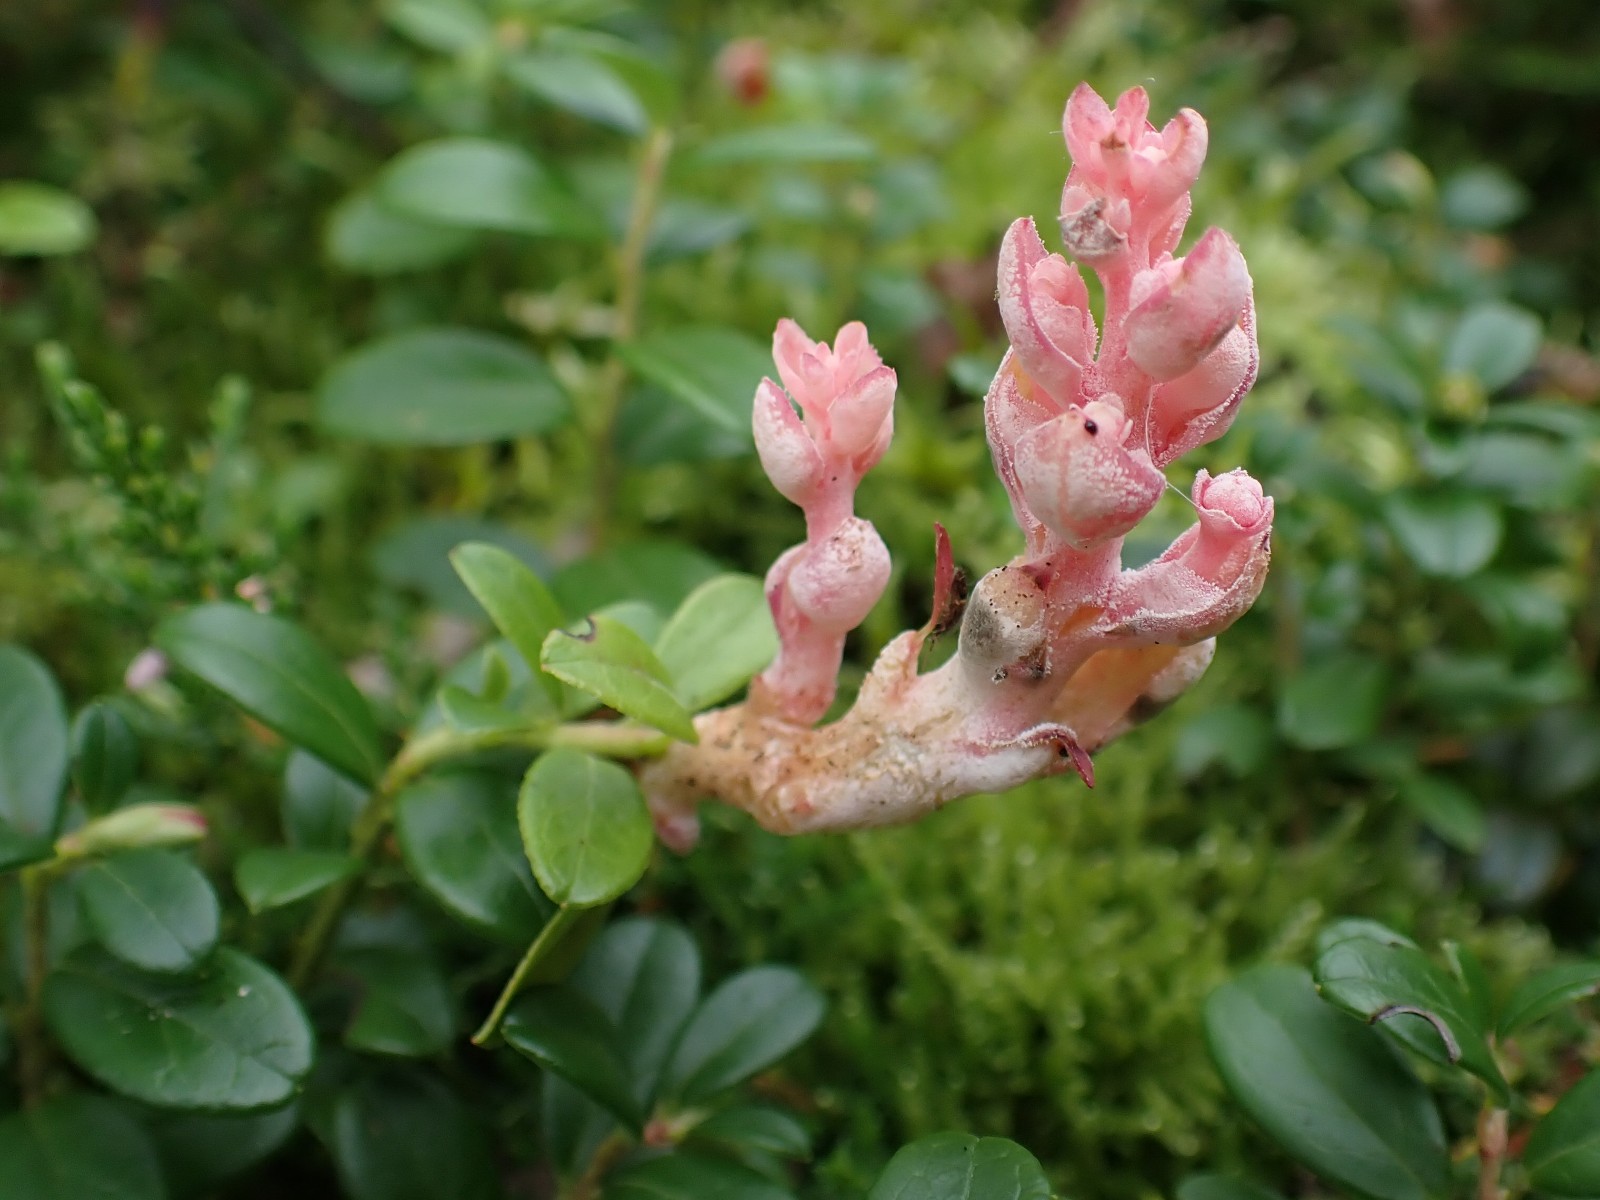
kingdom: Fungi
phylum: Basidiomycota
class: Exobasidiomycetes
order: Exobasidiales
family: Exobasidiaceae
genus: Exobasidium
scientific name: Exobasidium vaccinii
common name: tyttebærblad-bøllesvamp
